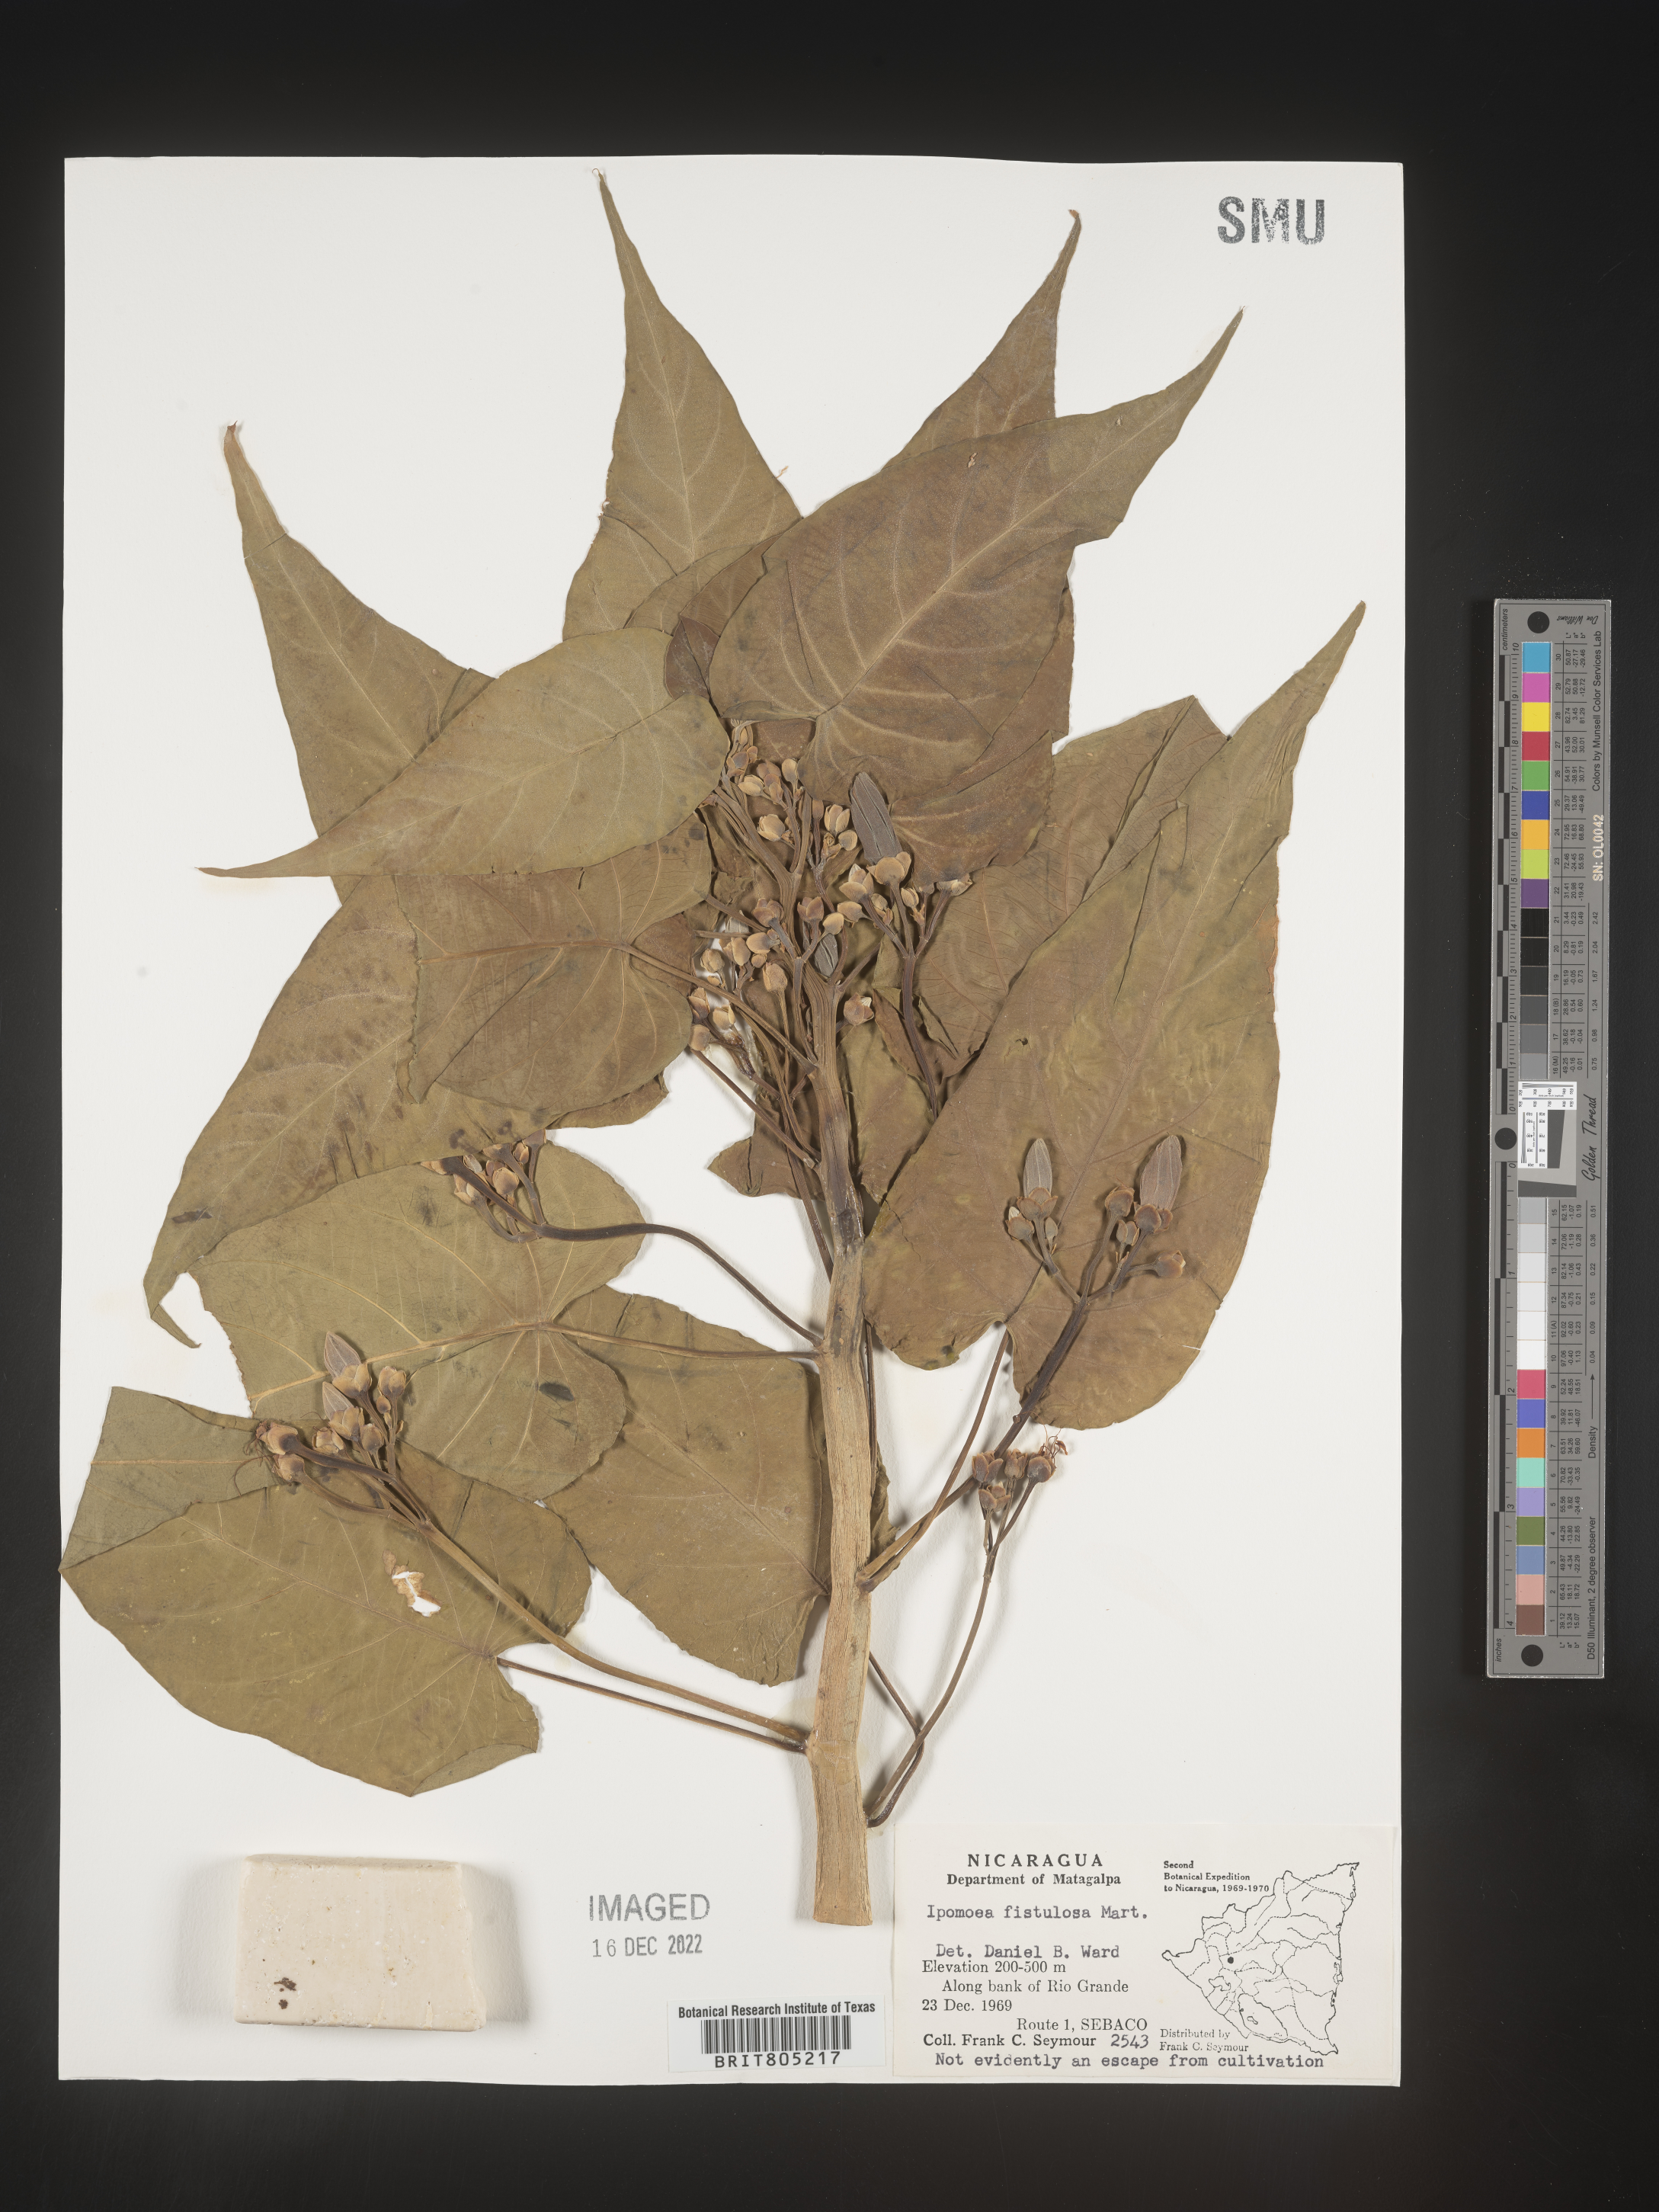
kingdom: Plantae
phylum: Tracheophyta
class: Magnoliopsida
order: Solanales
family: Convolvulaceae
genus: Ipomoea
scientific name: Ipomoea
